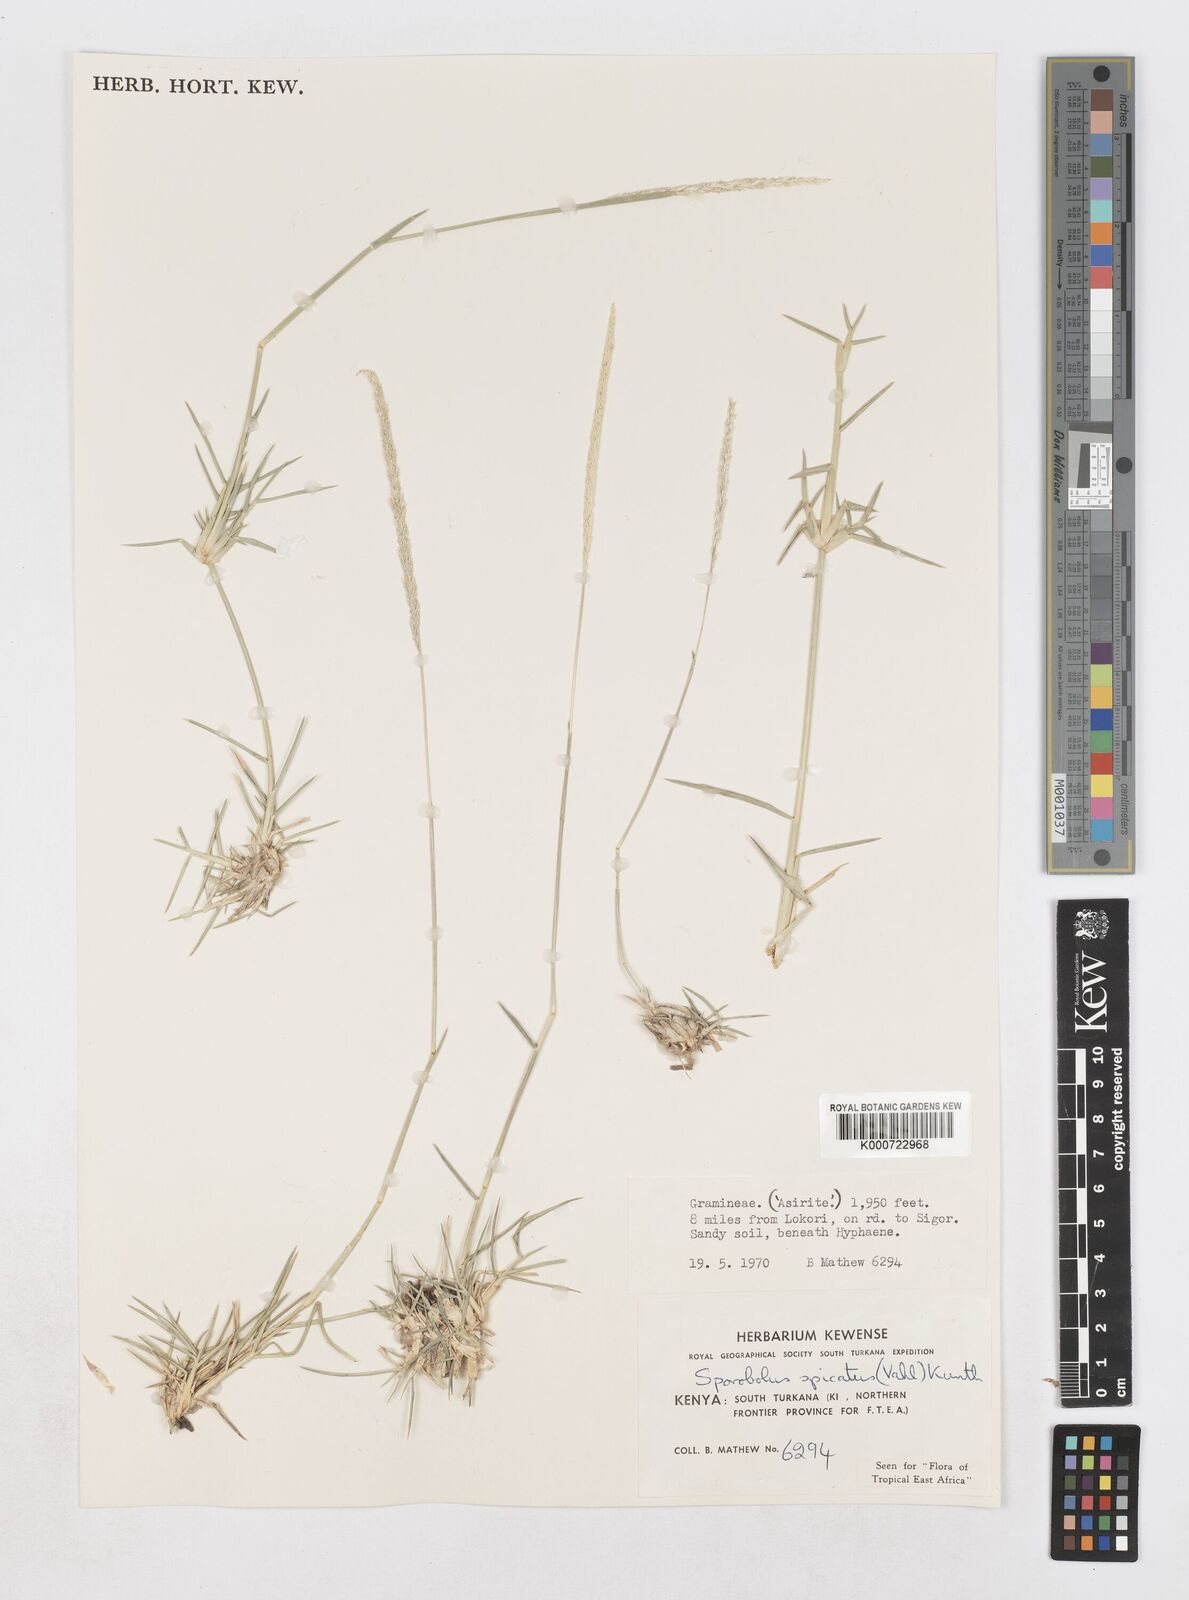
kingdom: Plantae
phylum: Tracheophyta
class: Liliopsida
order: Poales
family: Poaceae
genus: Sporobolus
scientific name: Sporobolus spicatus
